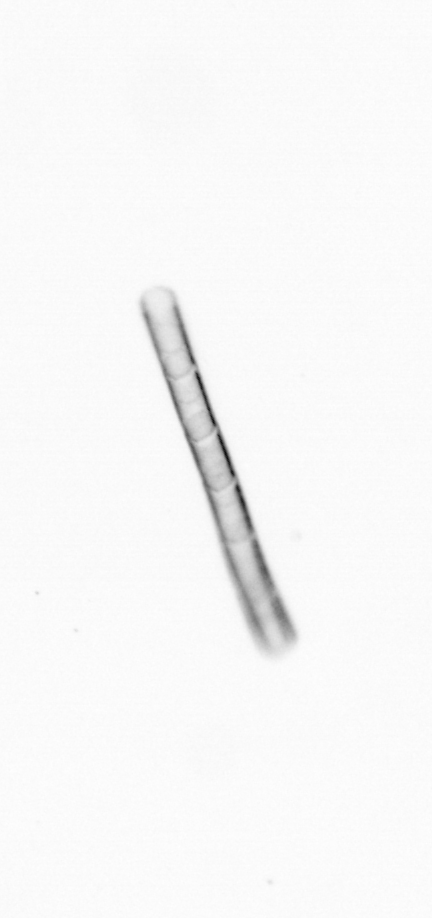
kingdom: Chromista
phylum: Ochrophyta
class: Bacillariophyceae
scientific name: Bacillariophyceae
